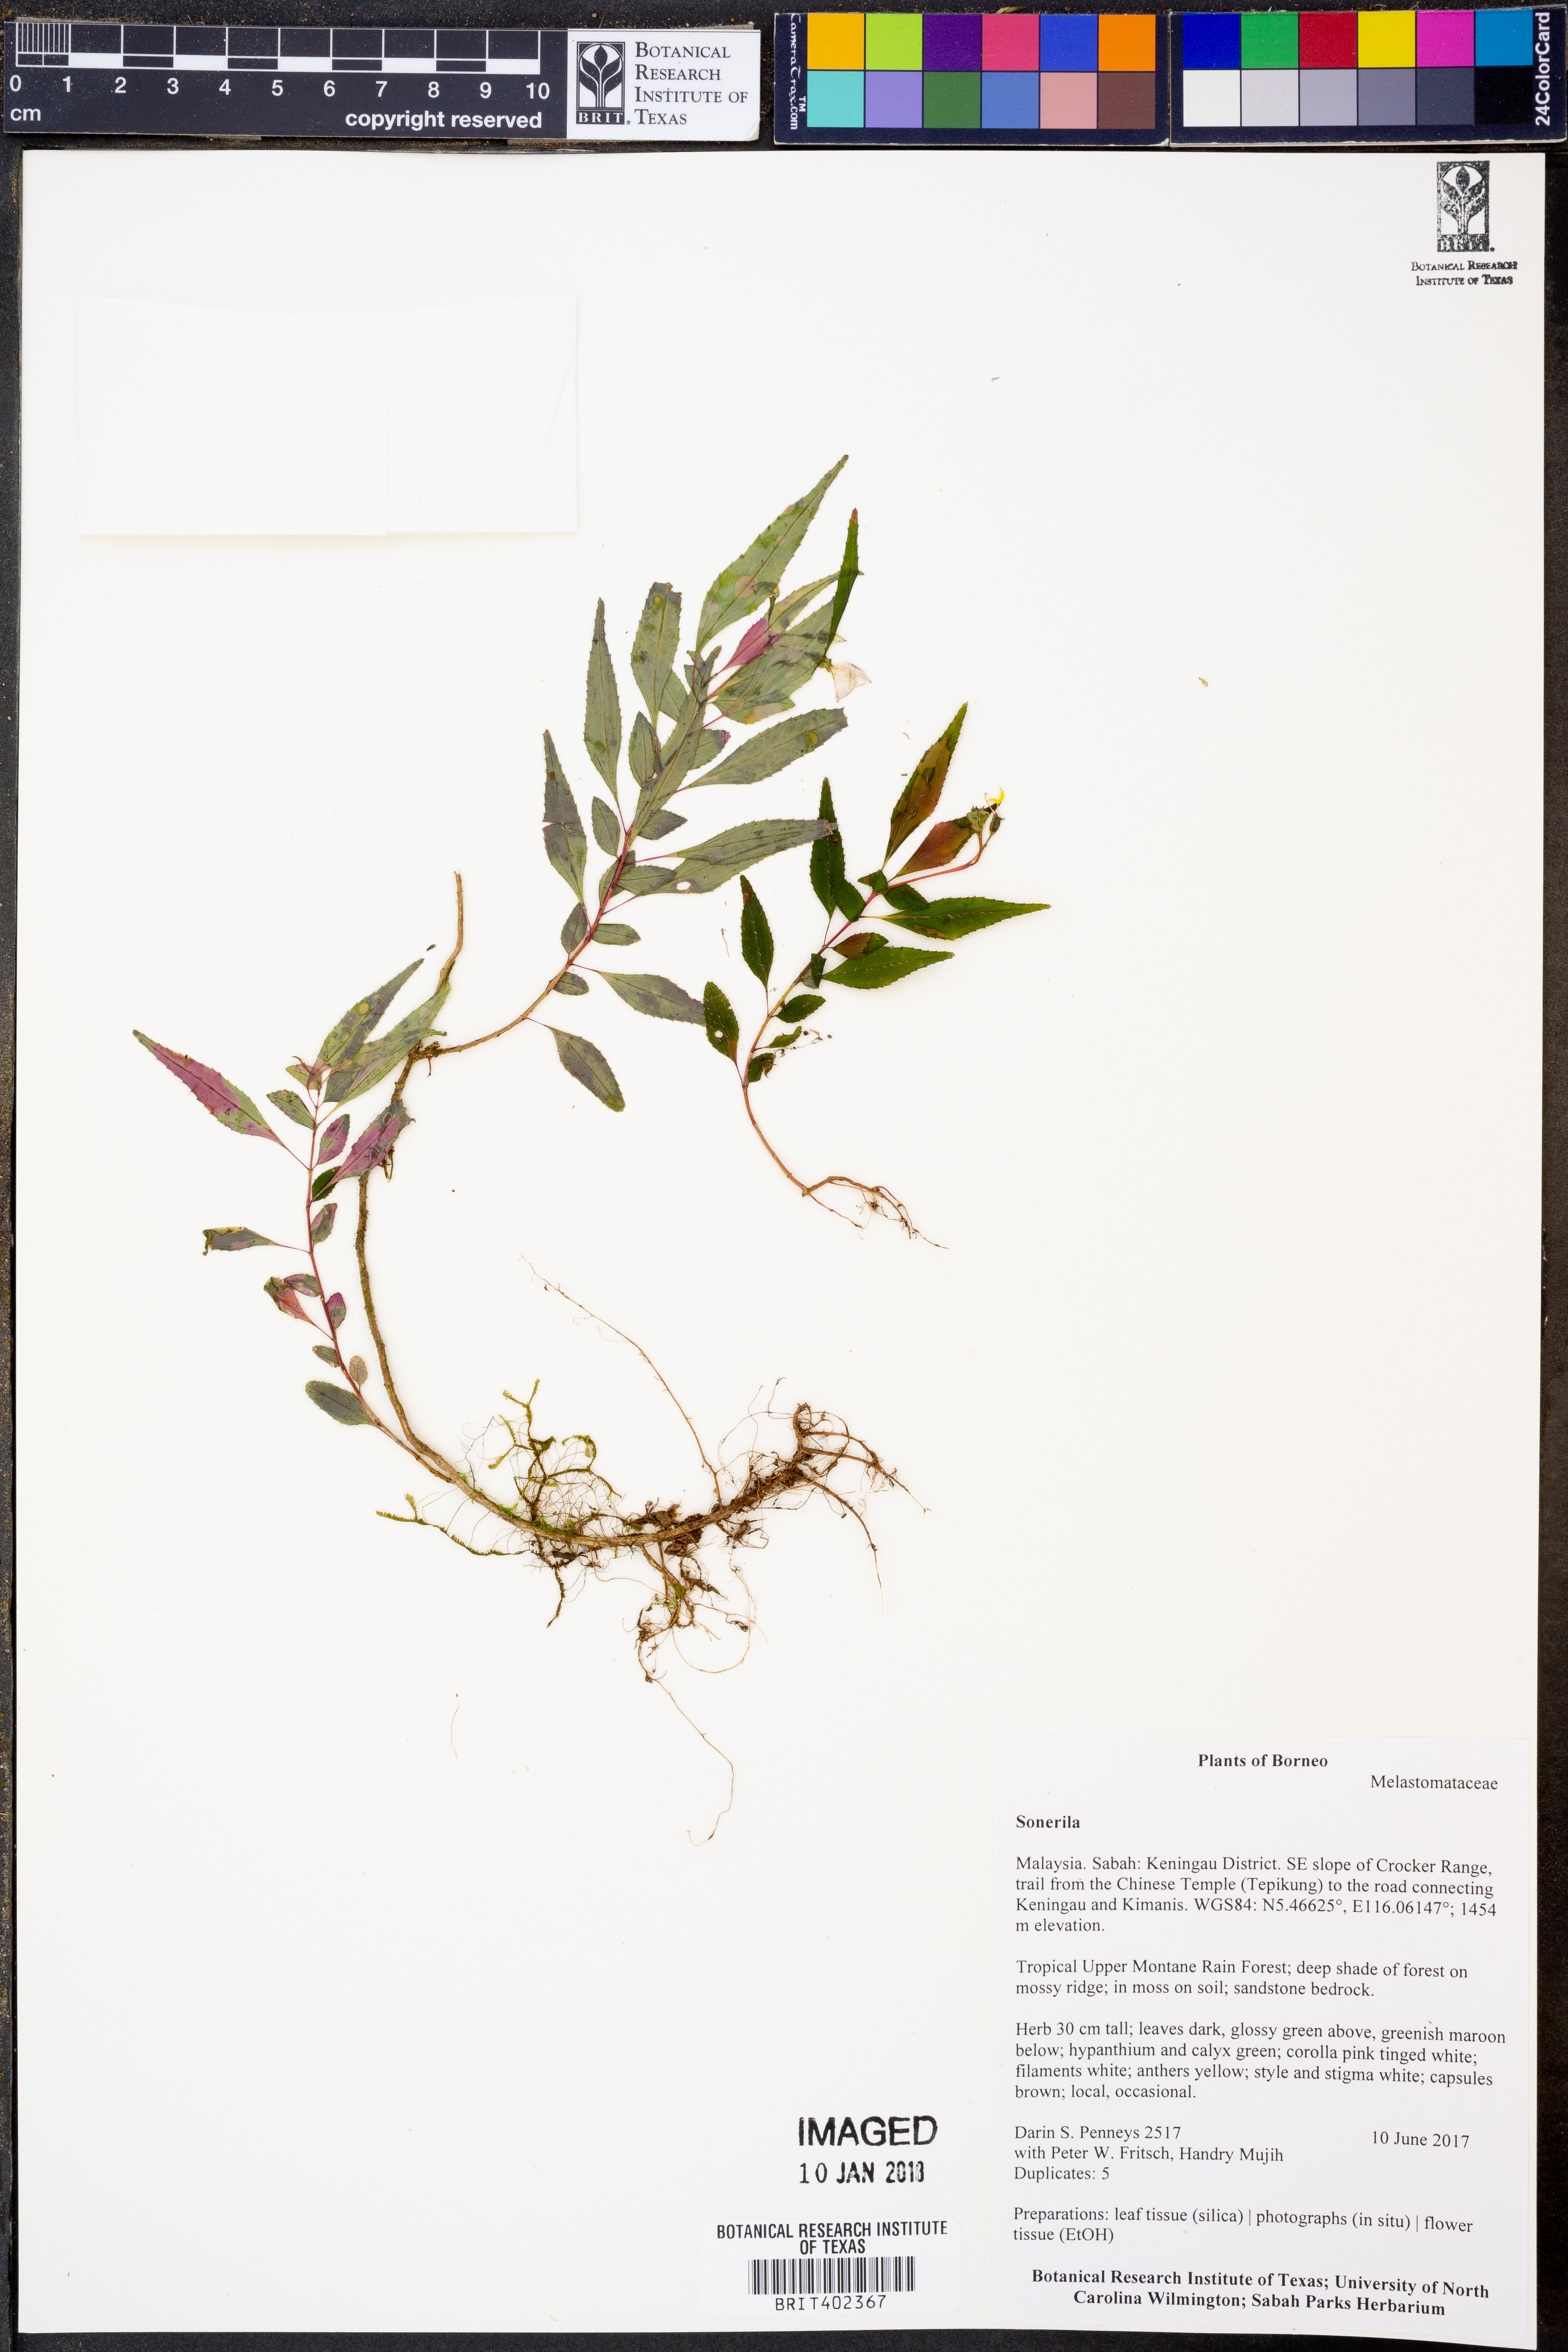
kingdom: Plantae
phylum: Tracheophyta
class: Magnoliopsida
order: Myrtales
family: Melastomataceae
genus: Sonerila
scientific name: Sonerila
